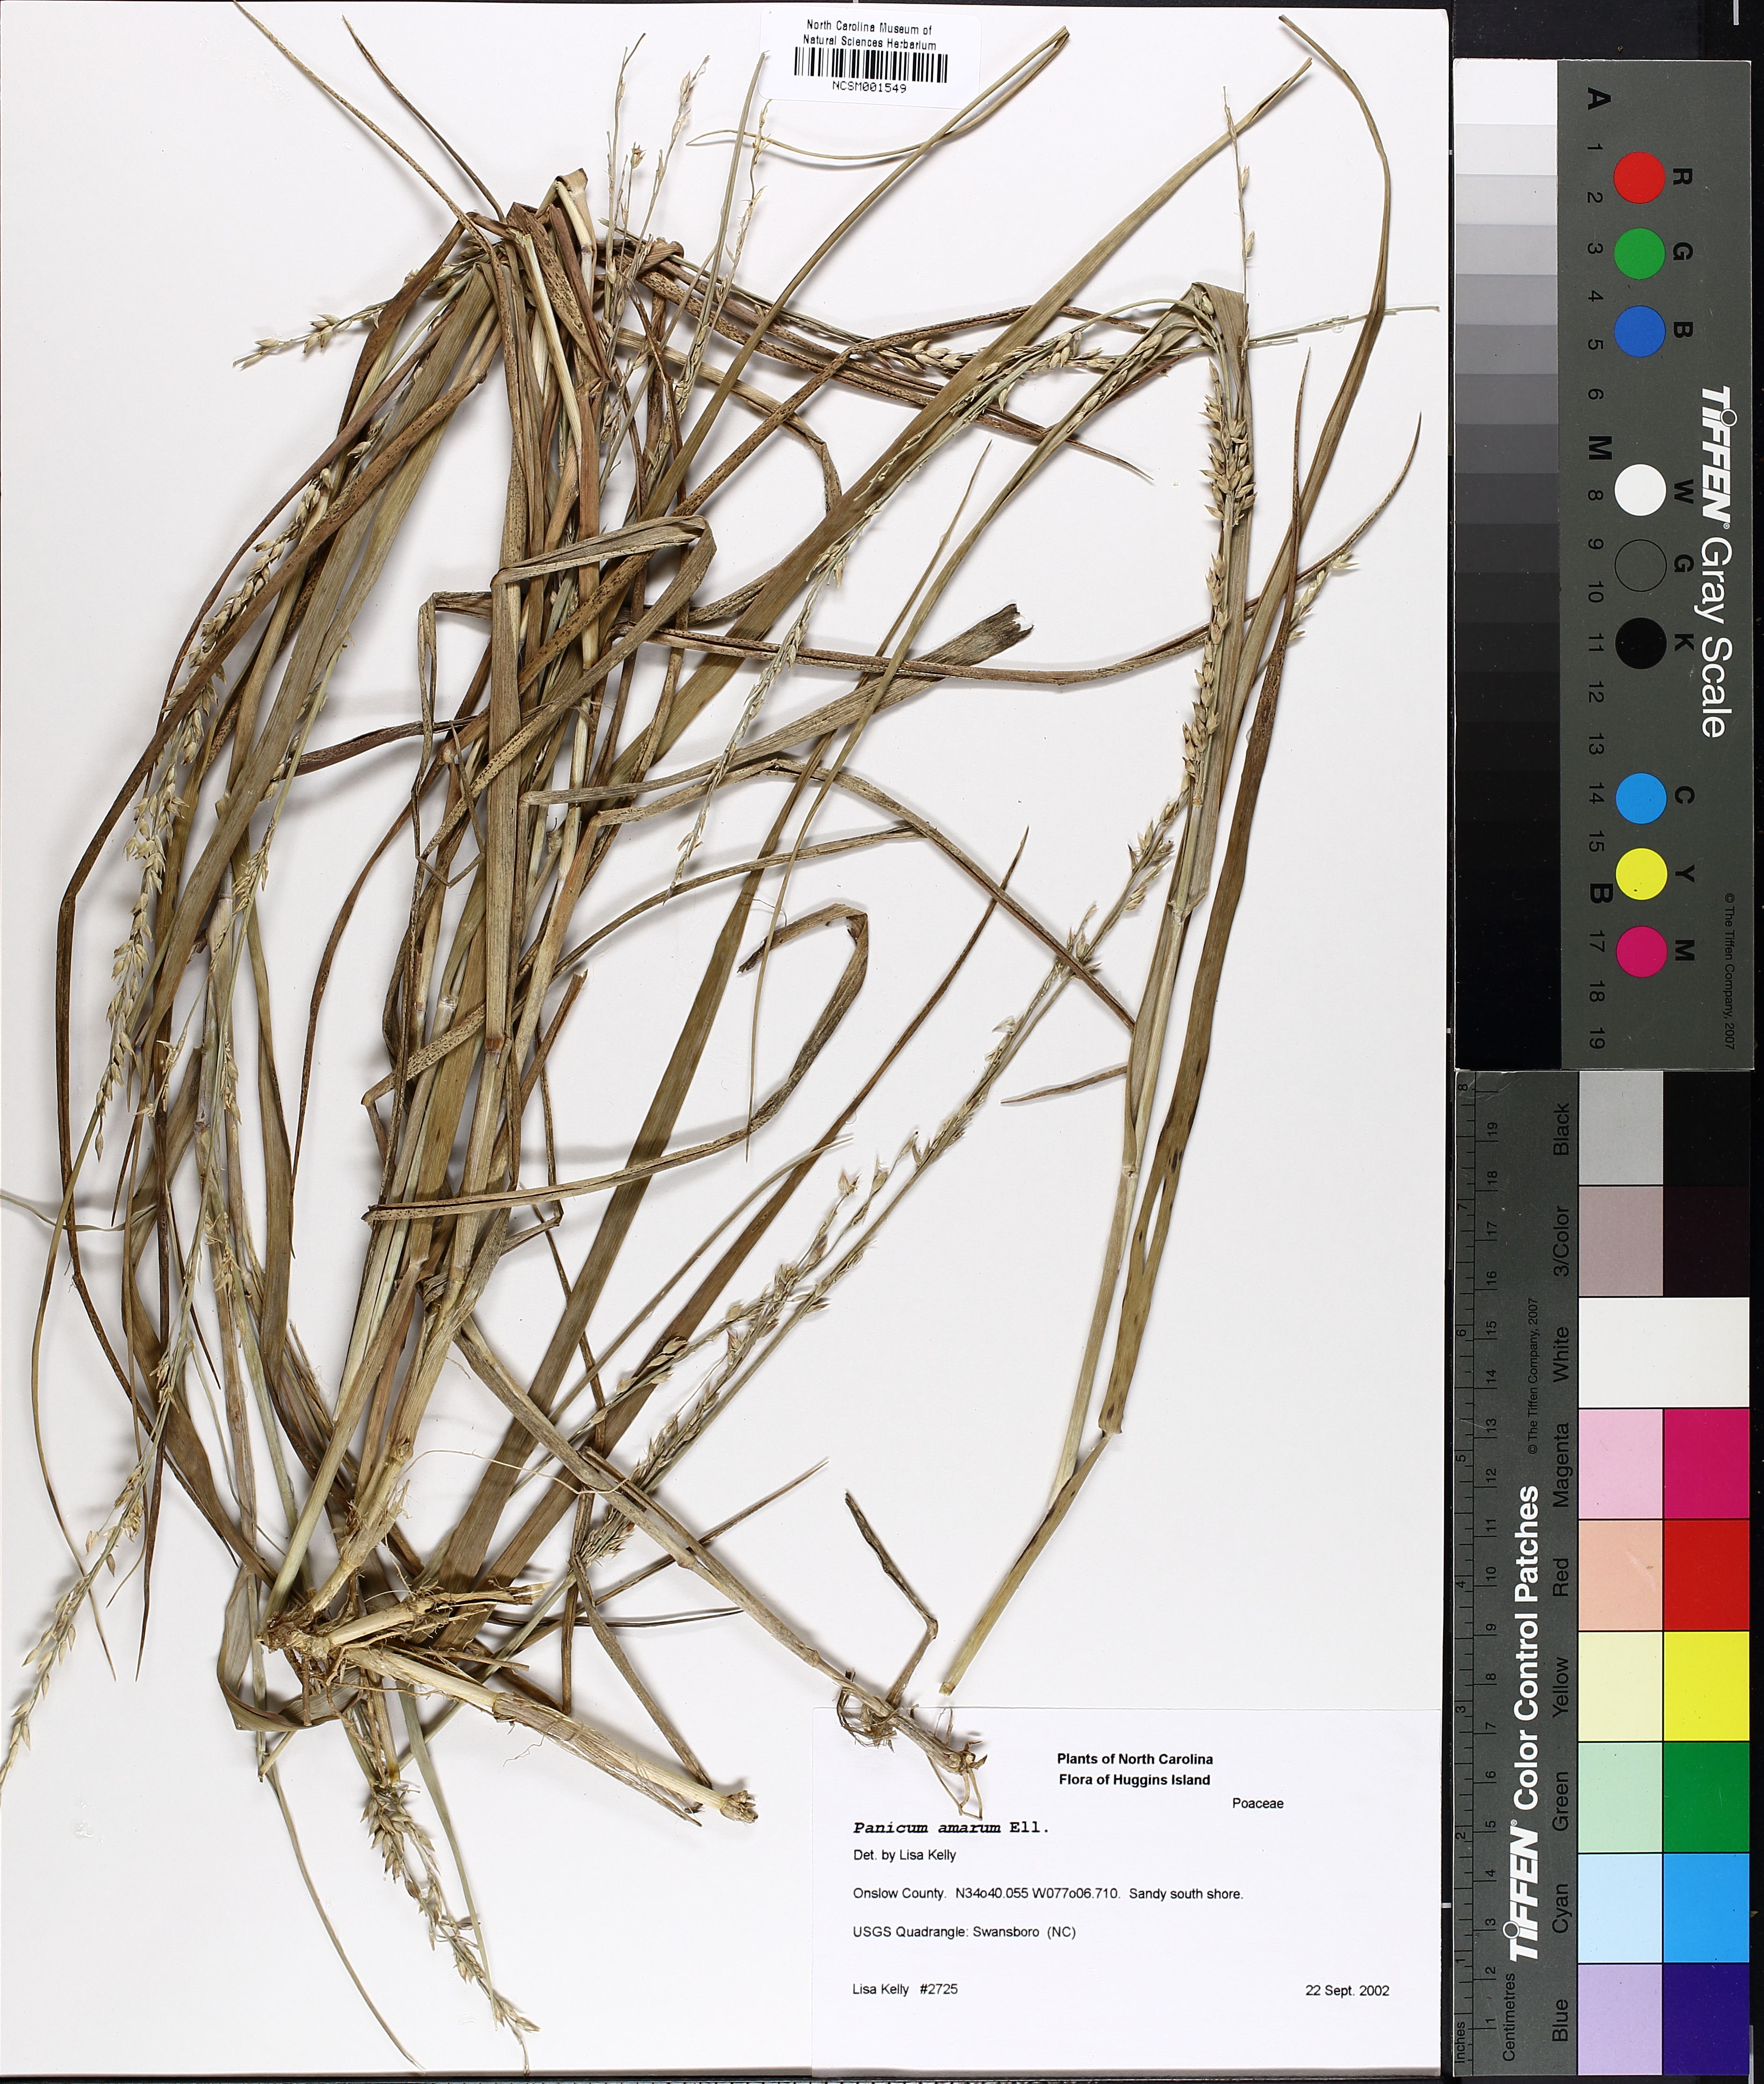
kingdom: Plantae
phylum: Tracheophyta
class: Liliopsida
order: Poales
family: Poaceae
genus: Panicum
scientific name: Panicum amarum
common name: Bitter panicum
